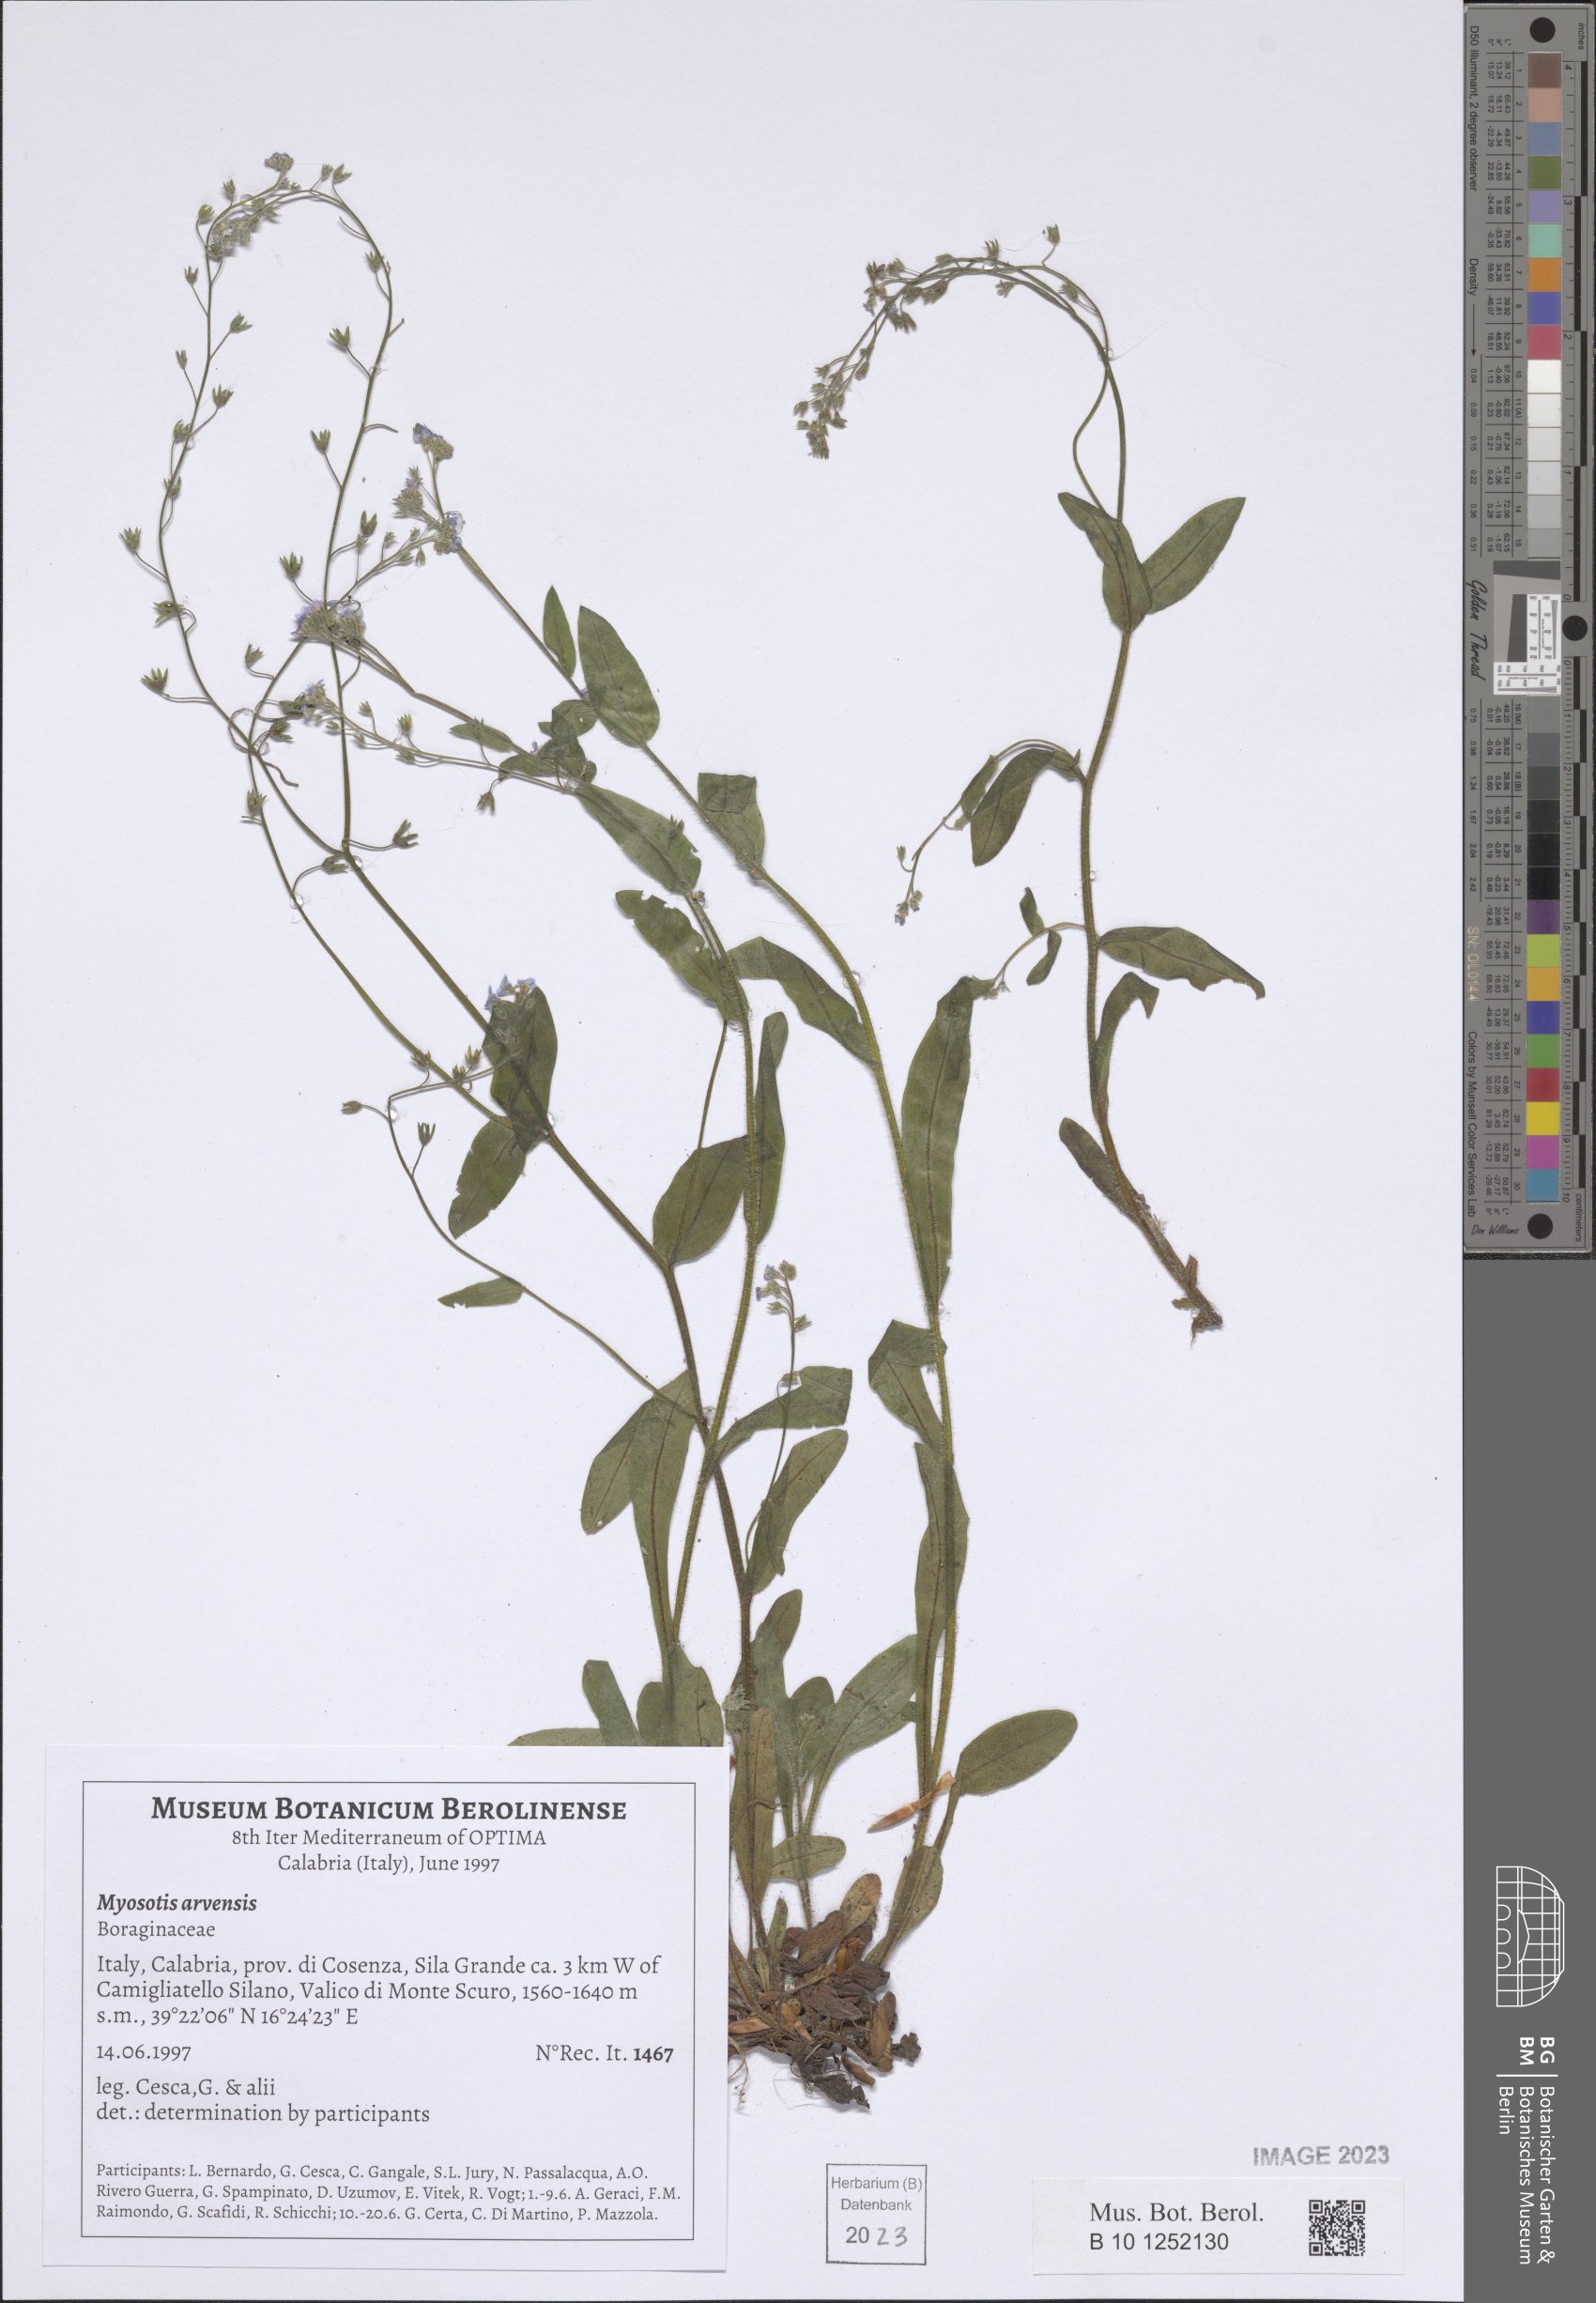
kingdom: Plantae
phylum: Tracheophyta
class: Magnoliopsida
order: Boraginales
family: Boraginaceae
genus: Myosotis
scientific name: Myosotis arvensis
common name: Field forget-me-not
